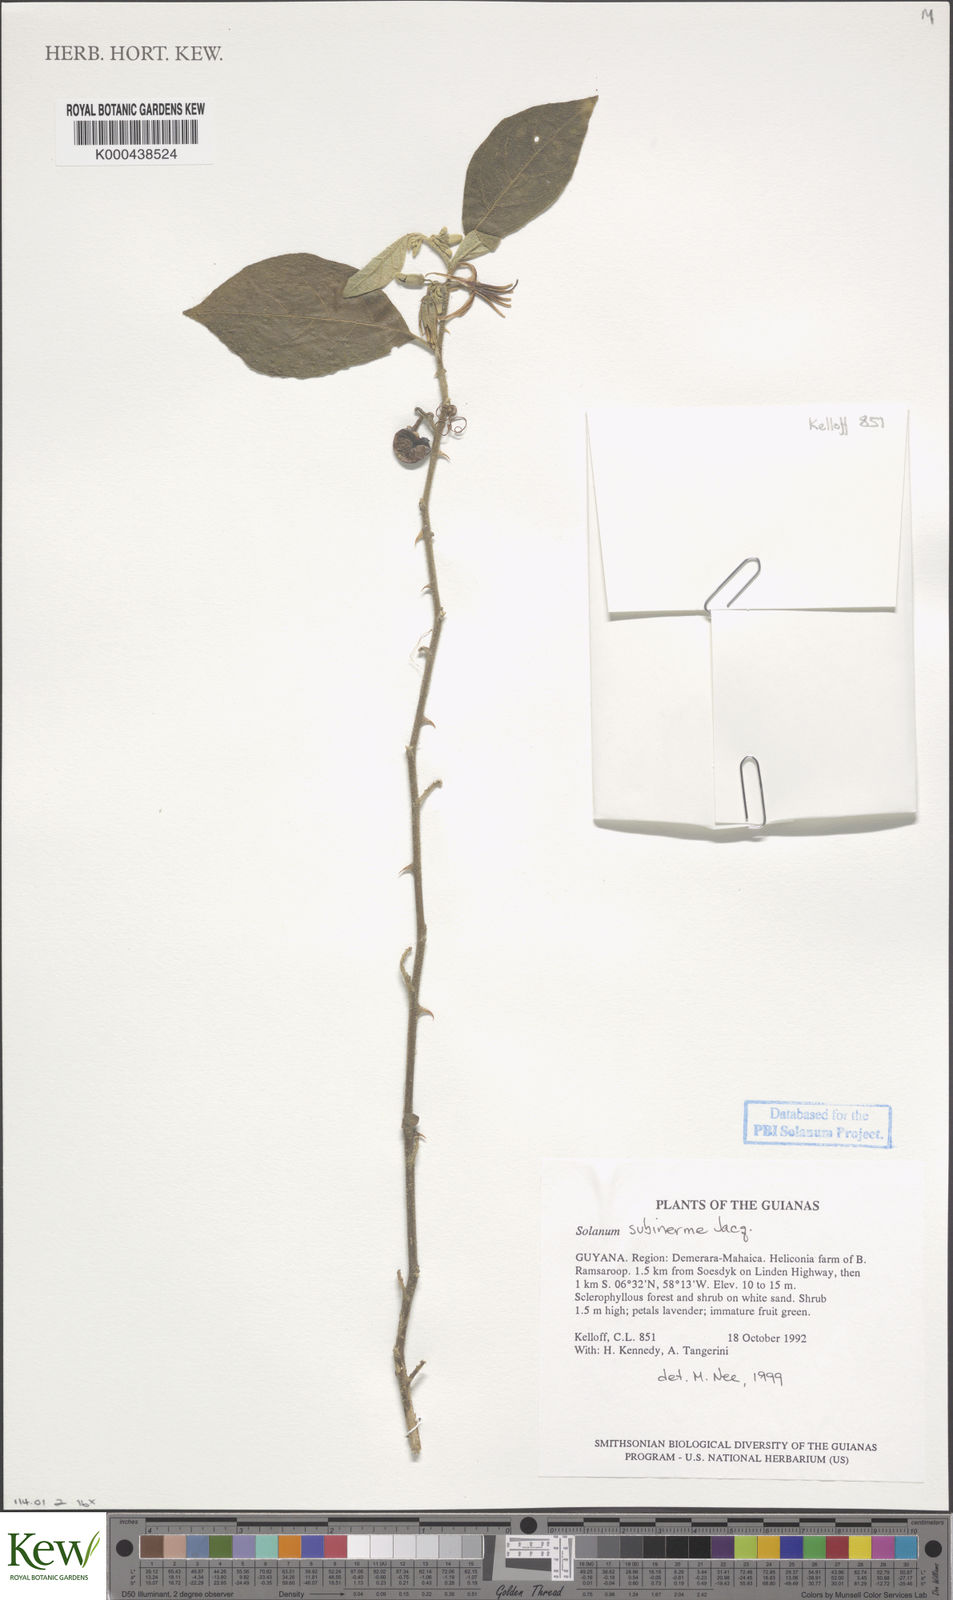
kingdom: Plantae
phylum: Tracheophyta
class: Magnoliopsida
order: Solanales
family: Solanaceae
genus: Solanum
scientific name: Solanum subinerme
